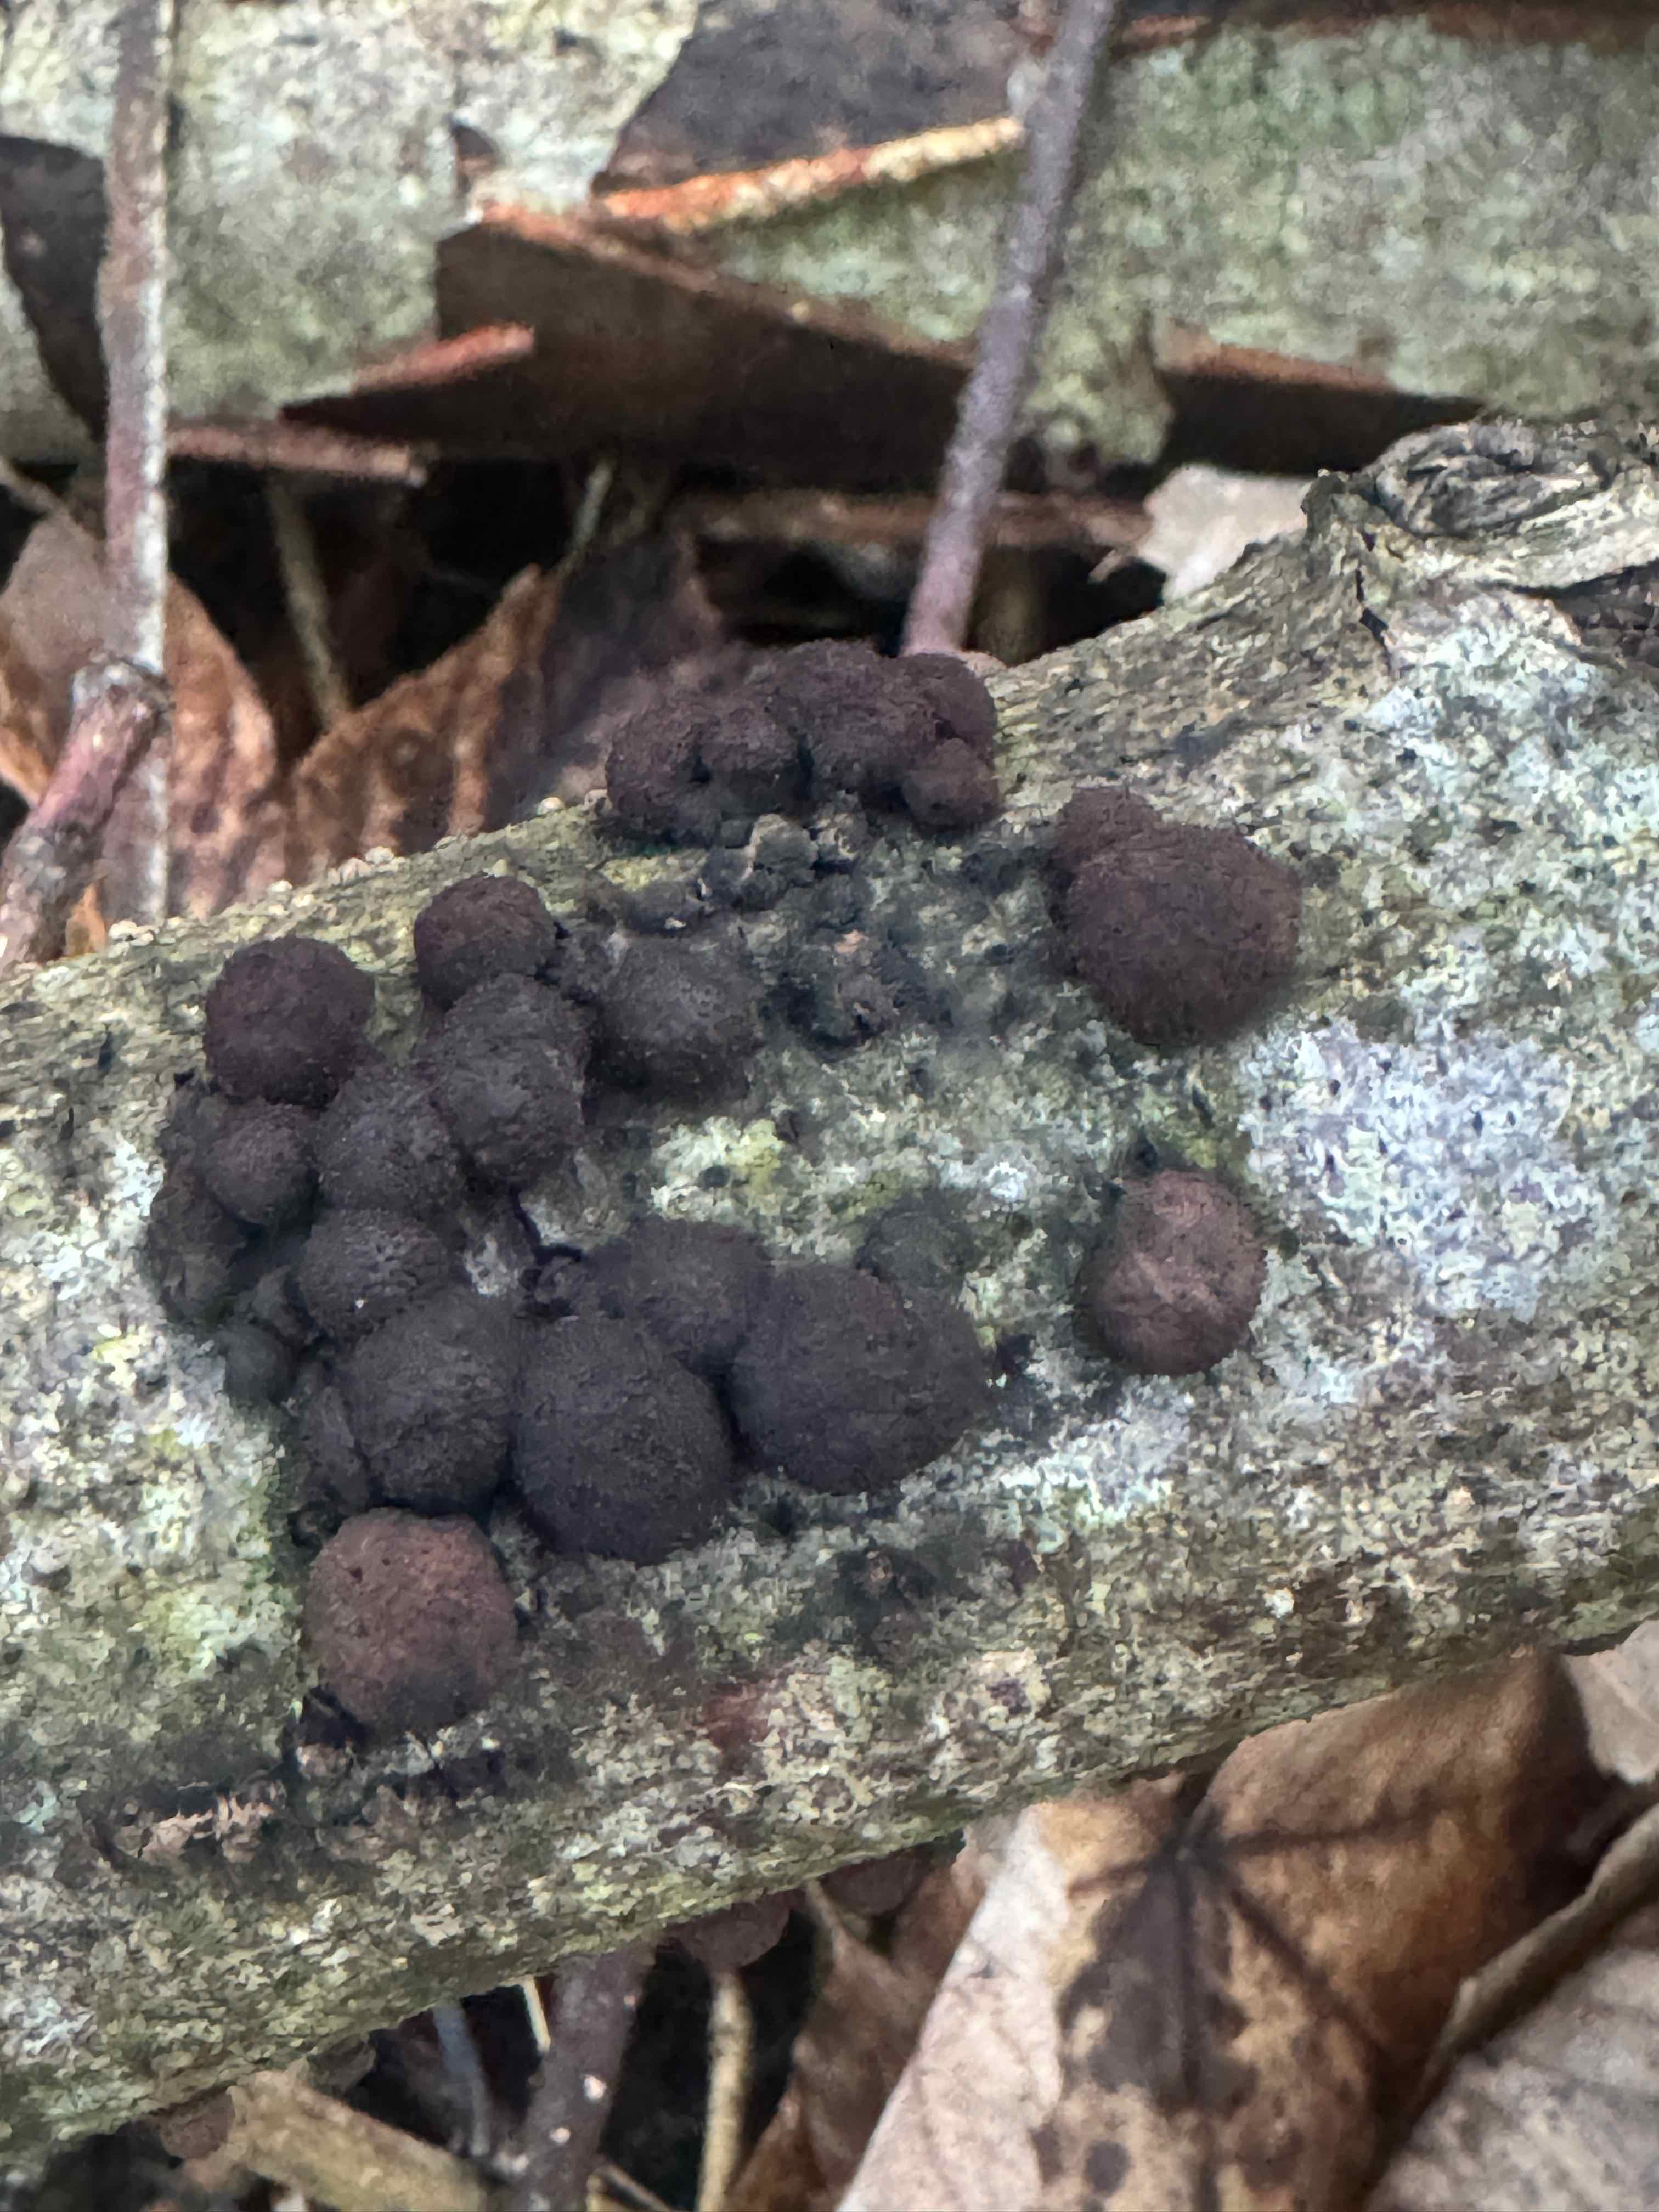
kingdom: Fungi
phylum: Ascomycota
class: Sordariomycetes
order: Xylariales
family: Hypoxylaceae
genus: Hypoxylon
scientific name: Hypoxylon fragiforme
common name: kuljordbær
